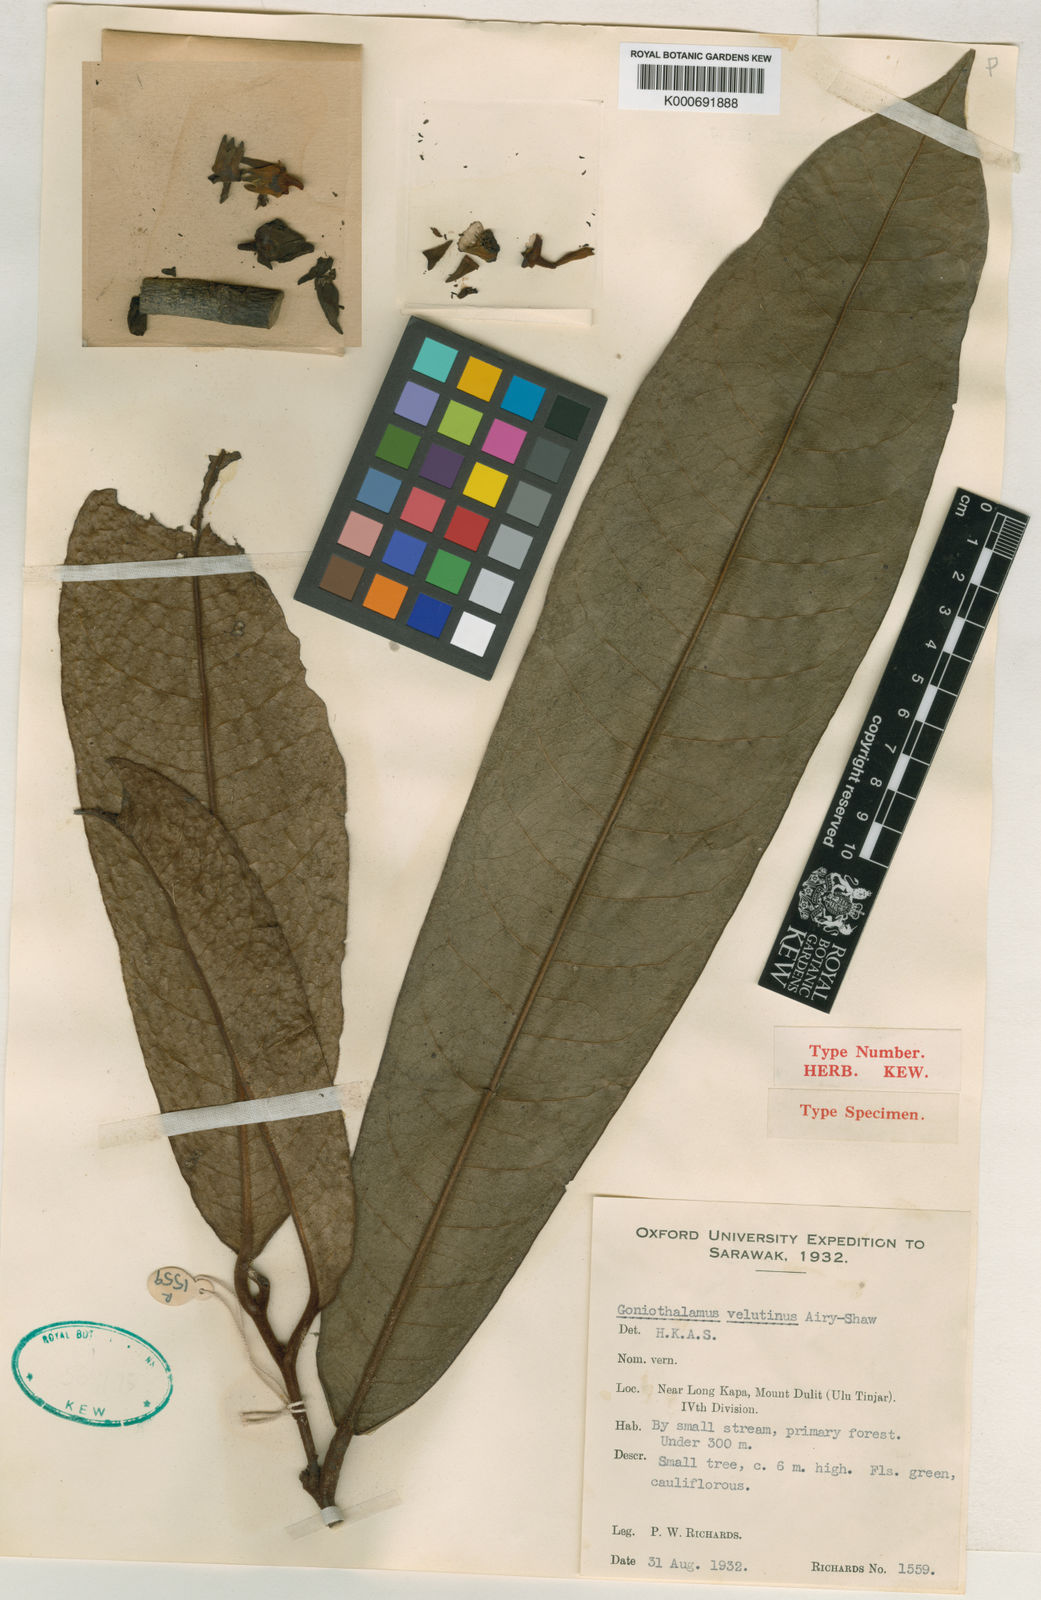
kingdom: Plantae
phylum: Tracheophyta
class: Magnoliopsida
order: Magnoliales
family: Annonaceae
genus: Goniothalamus
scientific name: Goniothalamus velutinus
